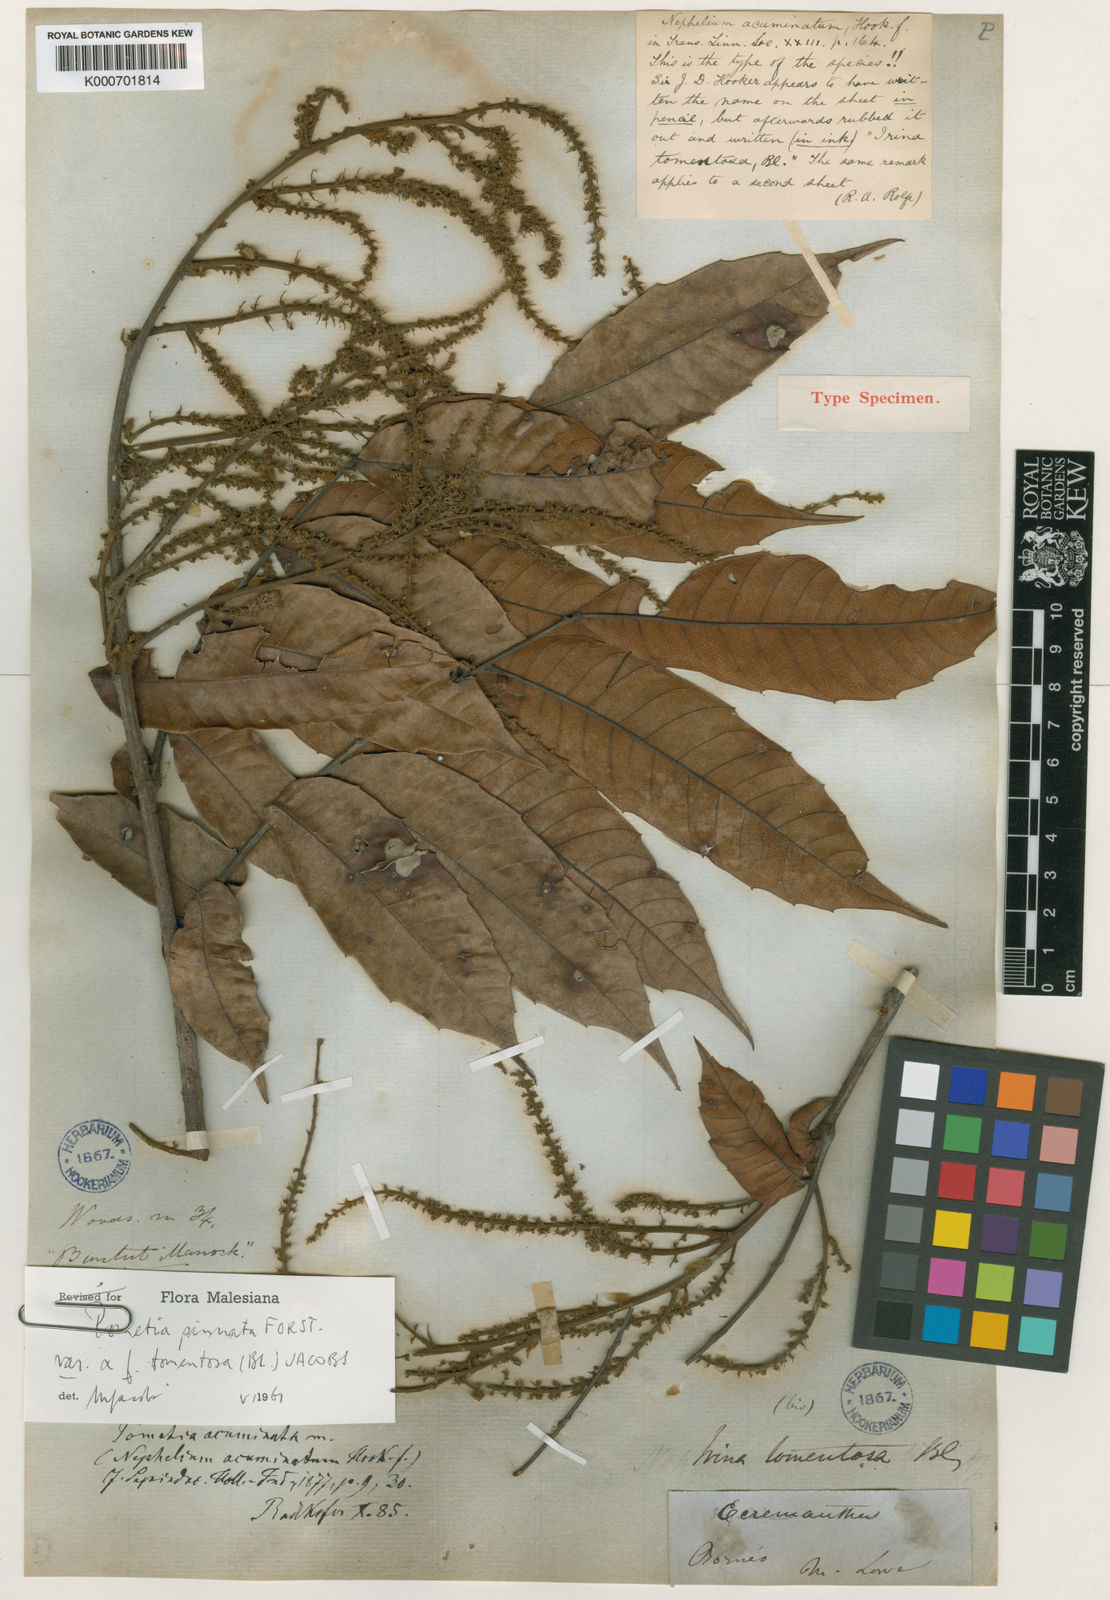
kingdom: Plantae
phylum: Tracheophyta
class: Magnoliopsida
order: Sapindales
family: Sapindaceae
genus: Pometia
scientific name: Pometia pinnata
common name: Oceanic lychee
